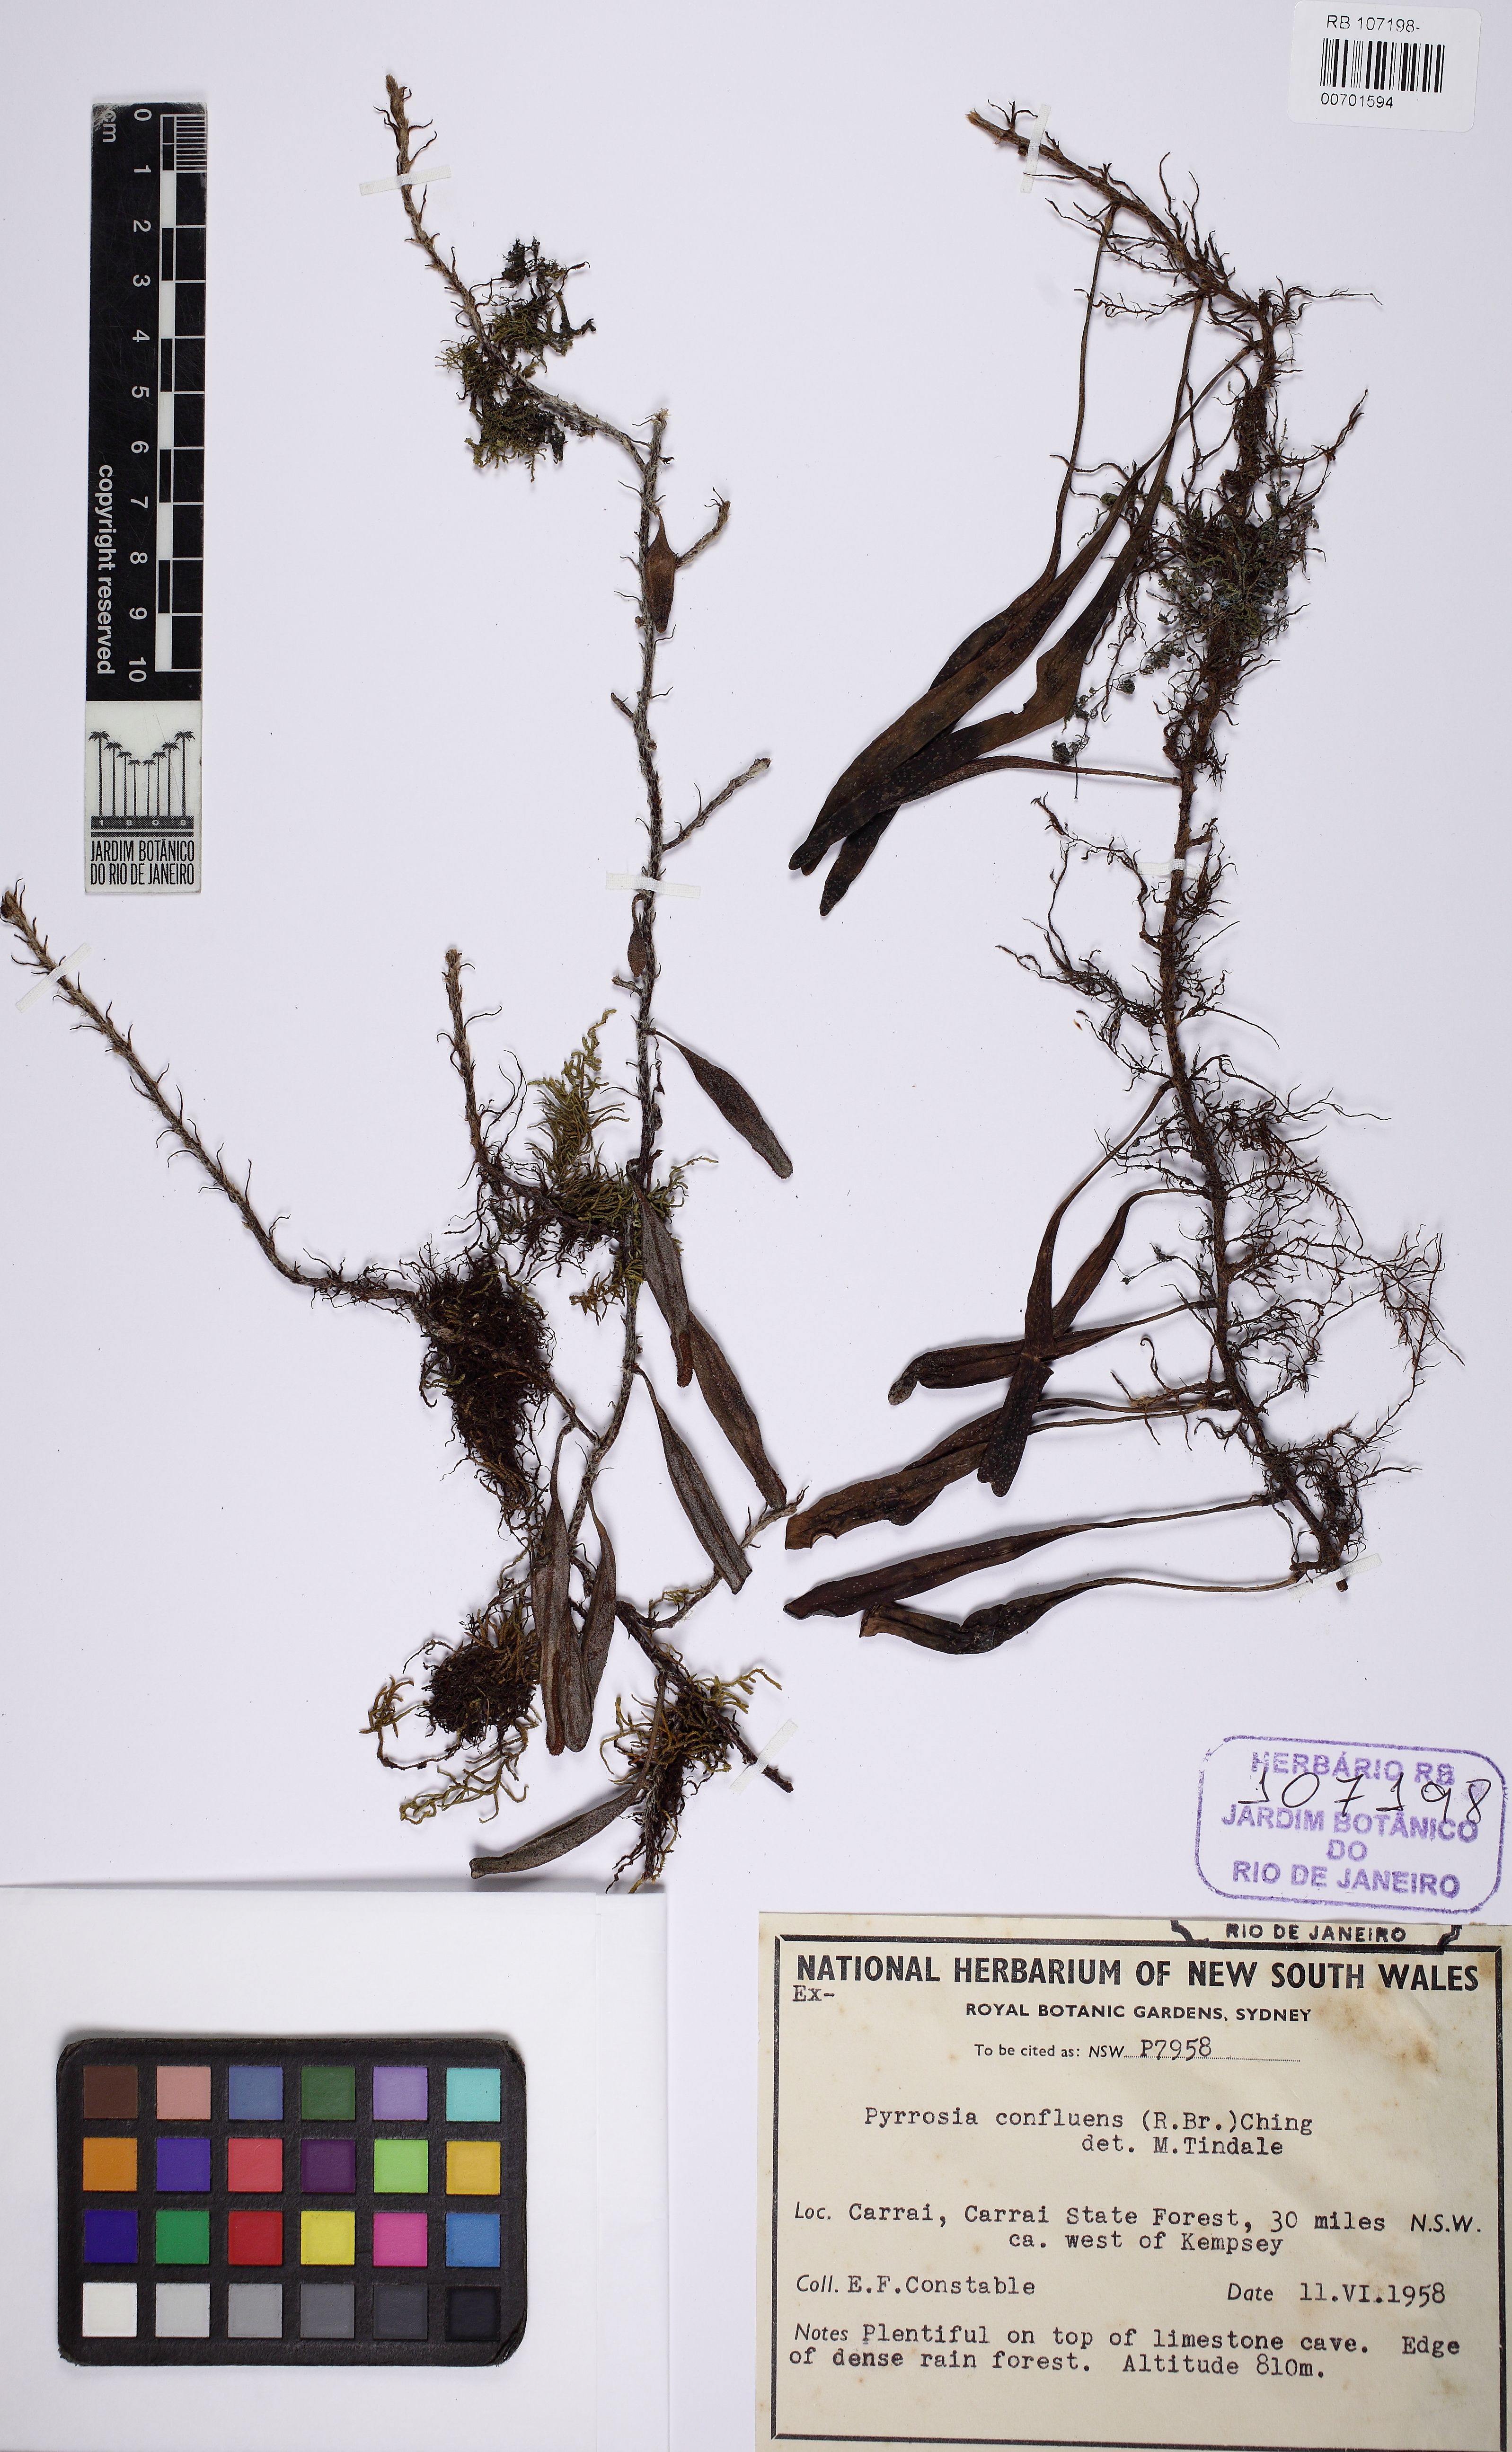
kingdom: Plantae
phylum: Tracheophyta
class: Polypodiopsida
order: Polypodiales
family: Polypodiaceae
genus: Pyrrosia
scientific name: Pyrrosia confluens
